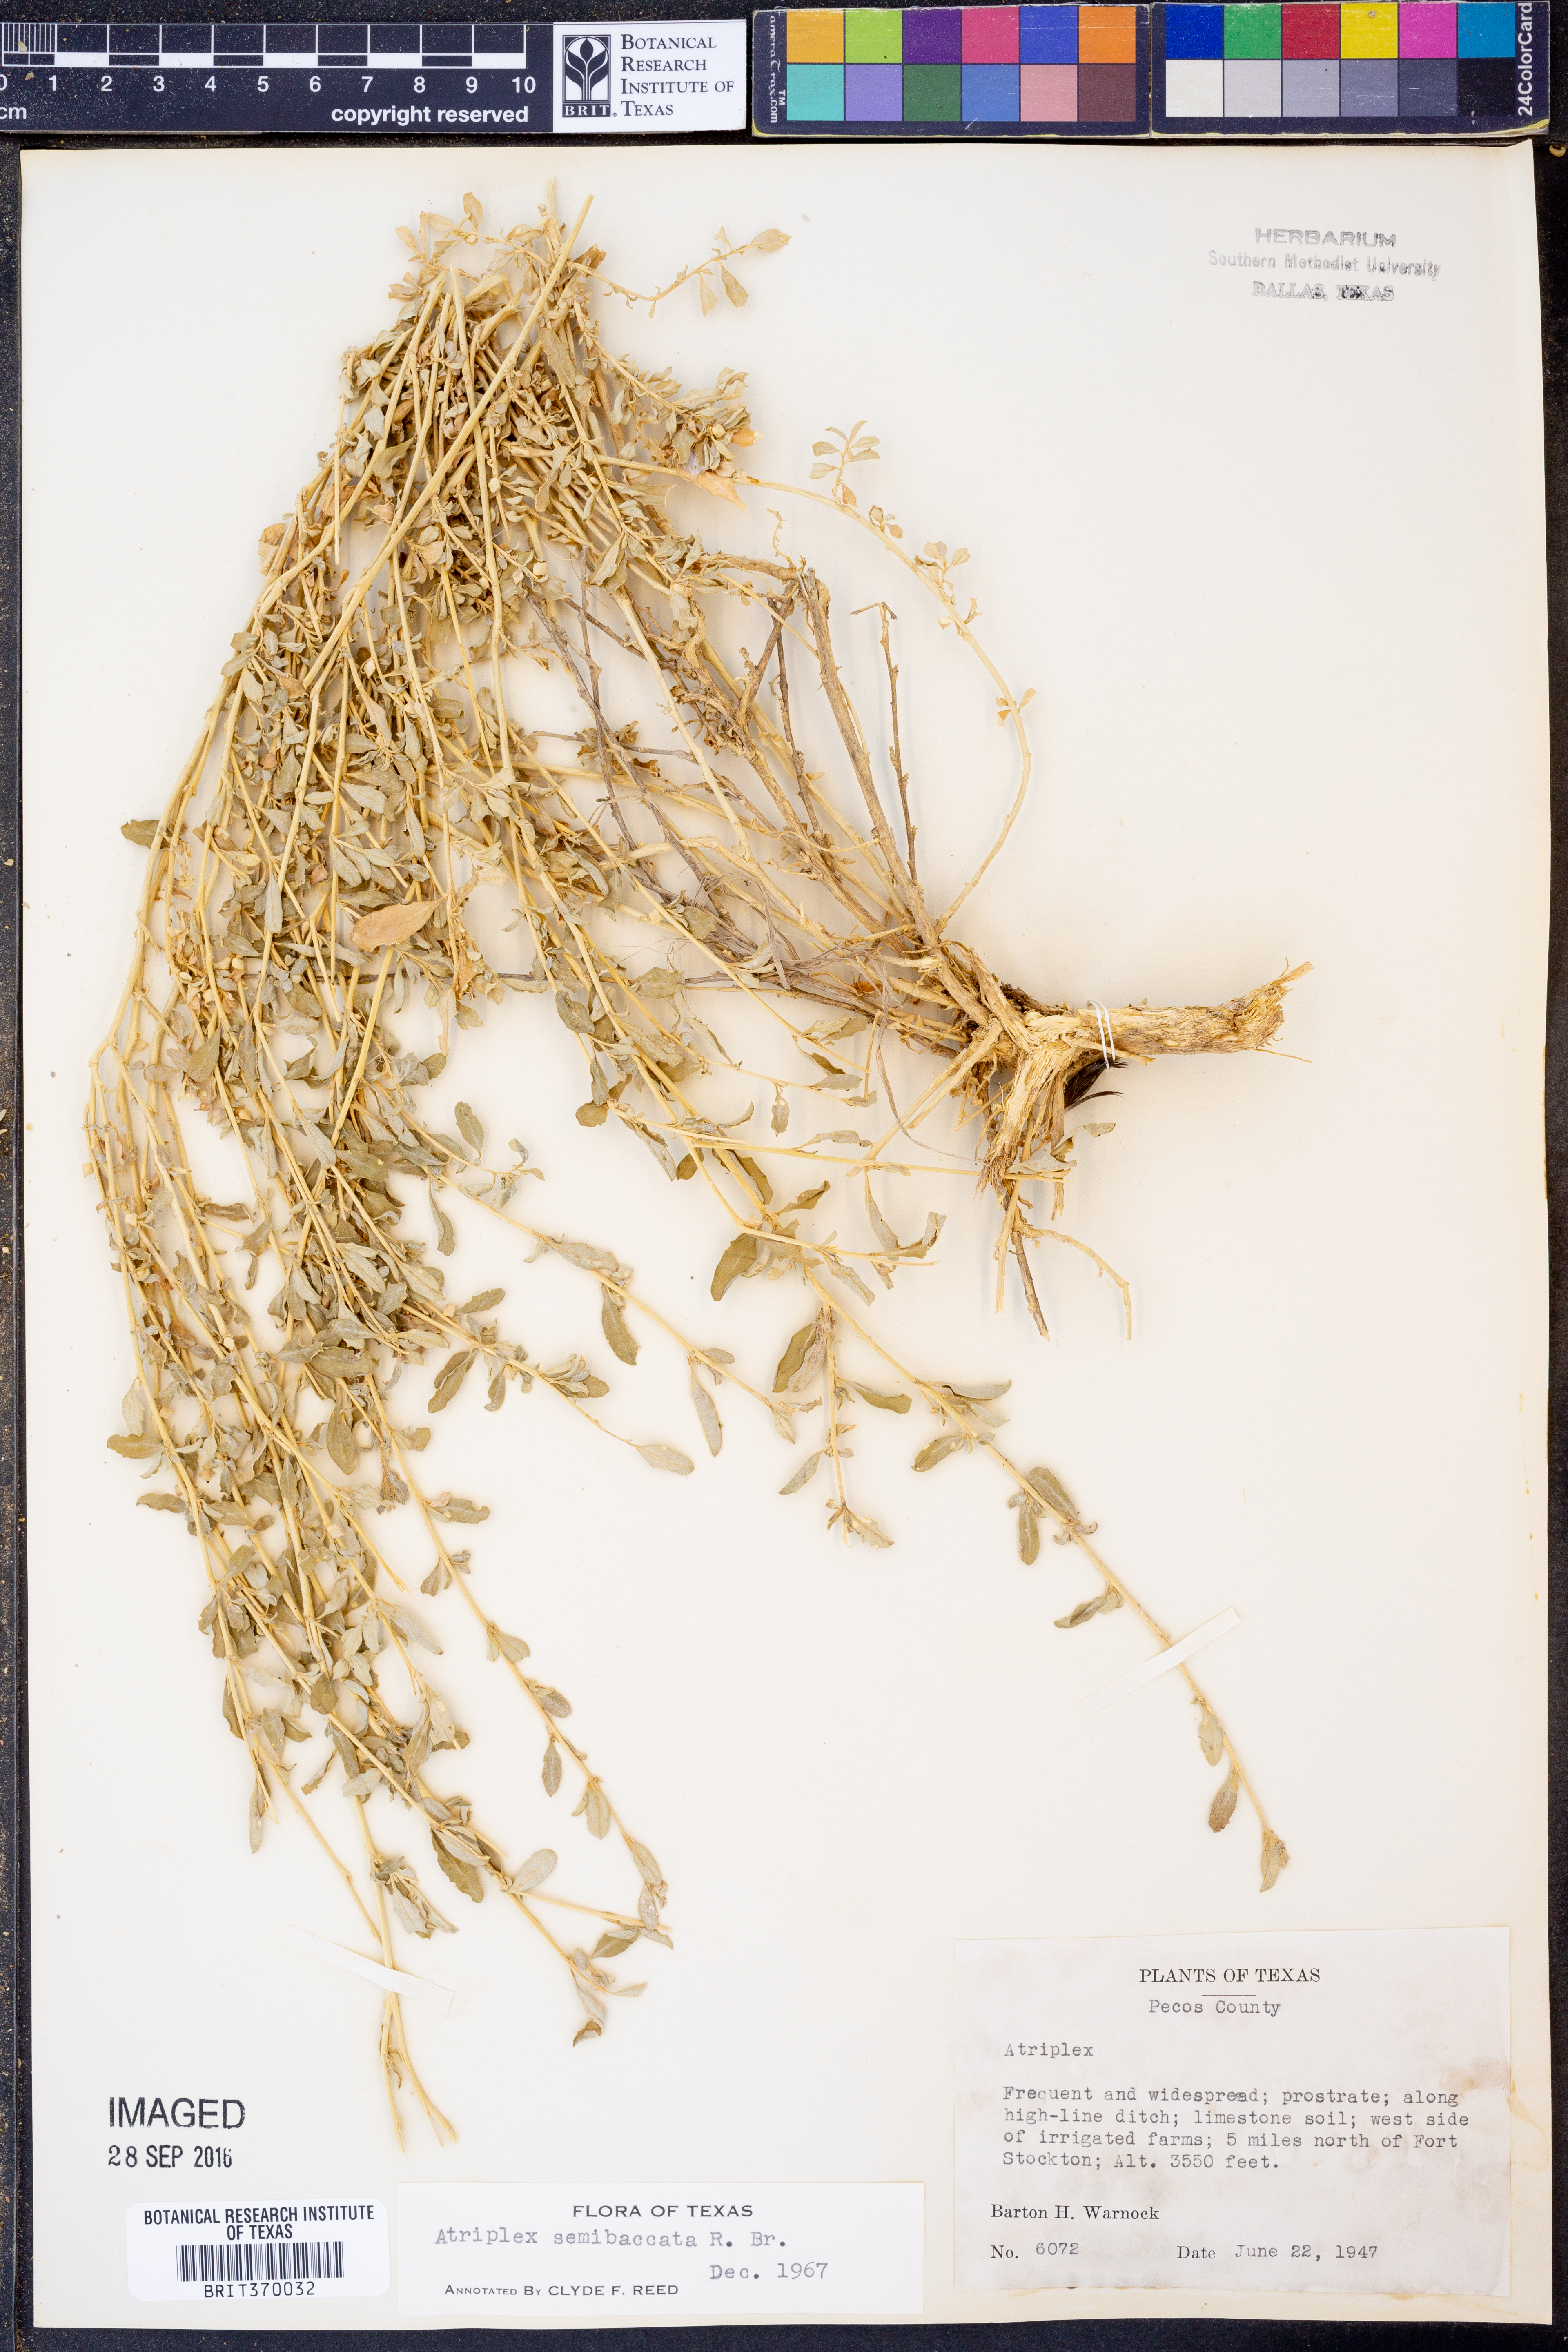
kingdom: Plantae
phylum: Tracheophyta
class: Magnoliopsida
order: Caryophyllales
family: Amaranthaceae
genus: Atriplex
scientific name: Atriplex semibaccata
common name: Australian saltbush
